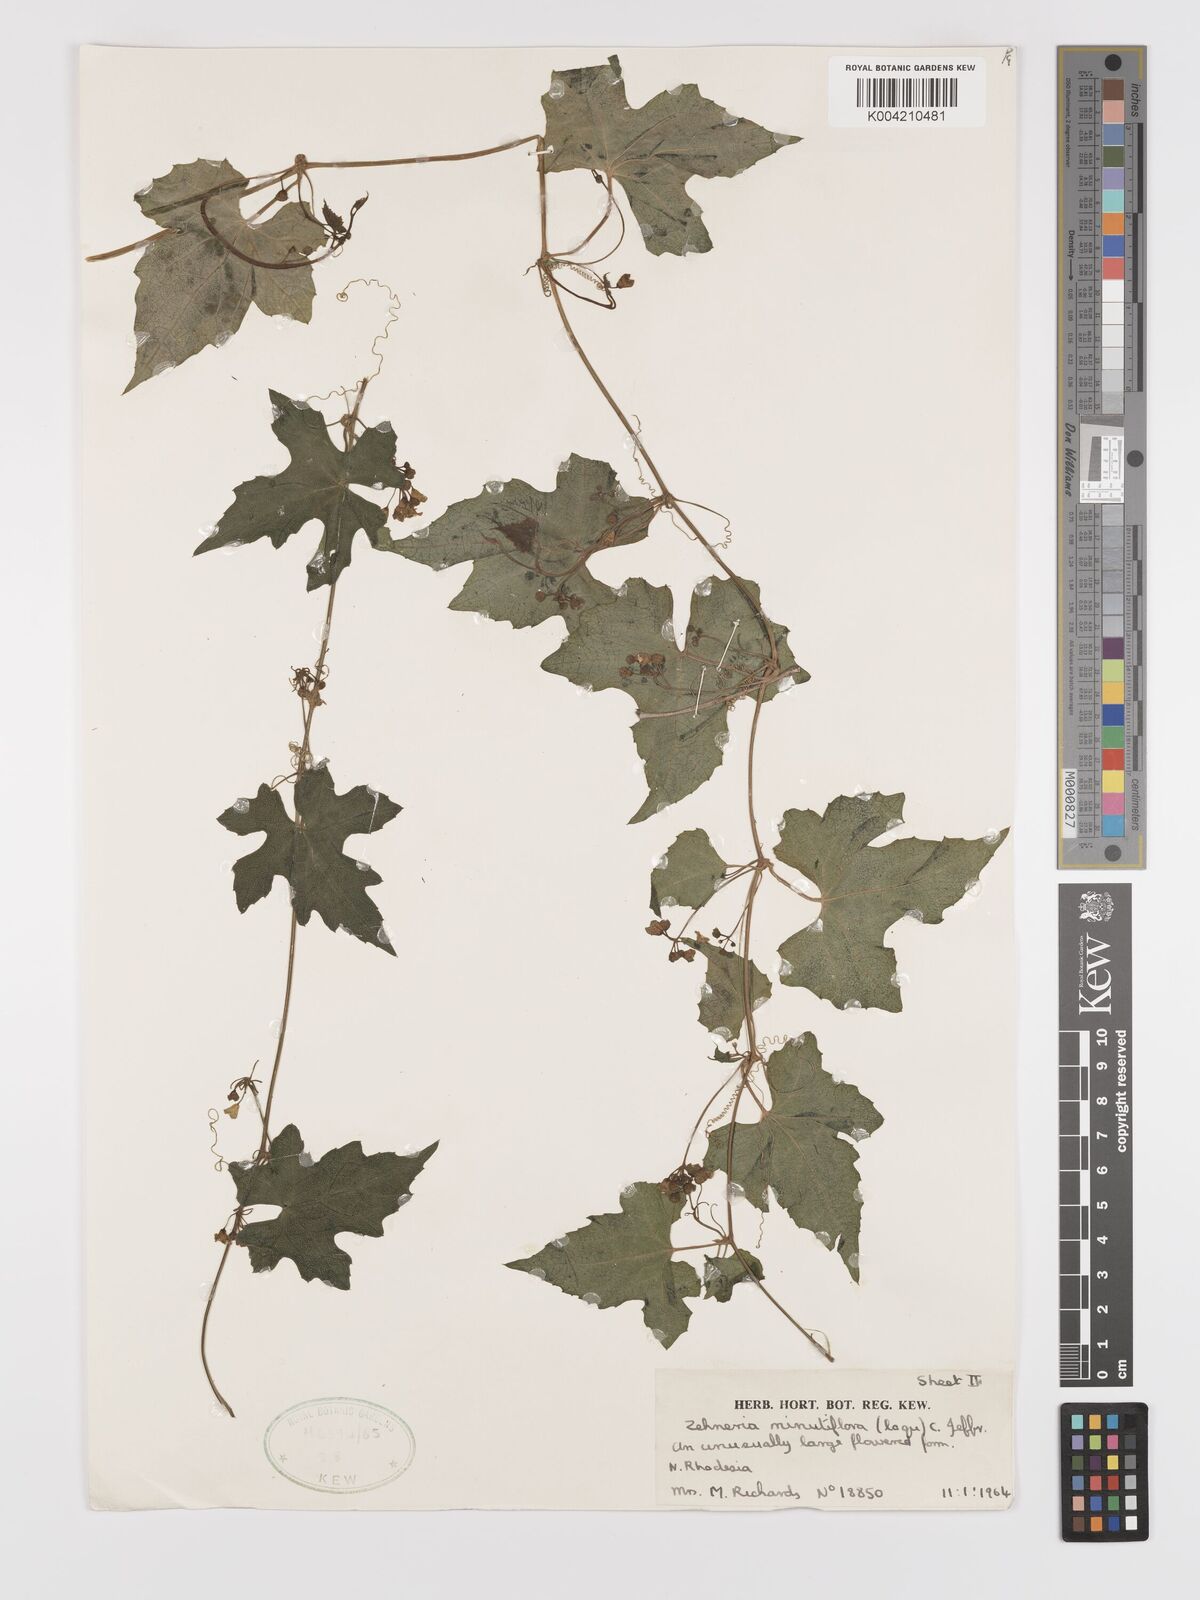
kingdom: Plantae
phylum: Tracheophyta
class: Magnoliopsida
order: Cucurbitales
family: Cucurbitaceae
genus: Zehneria
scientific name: Zehneria minutiflora
